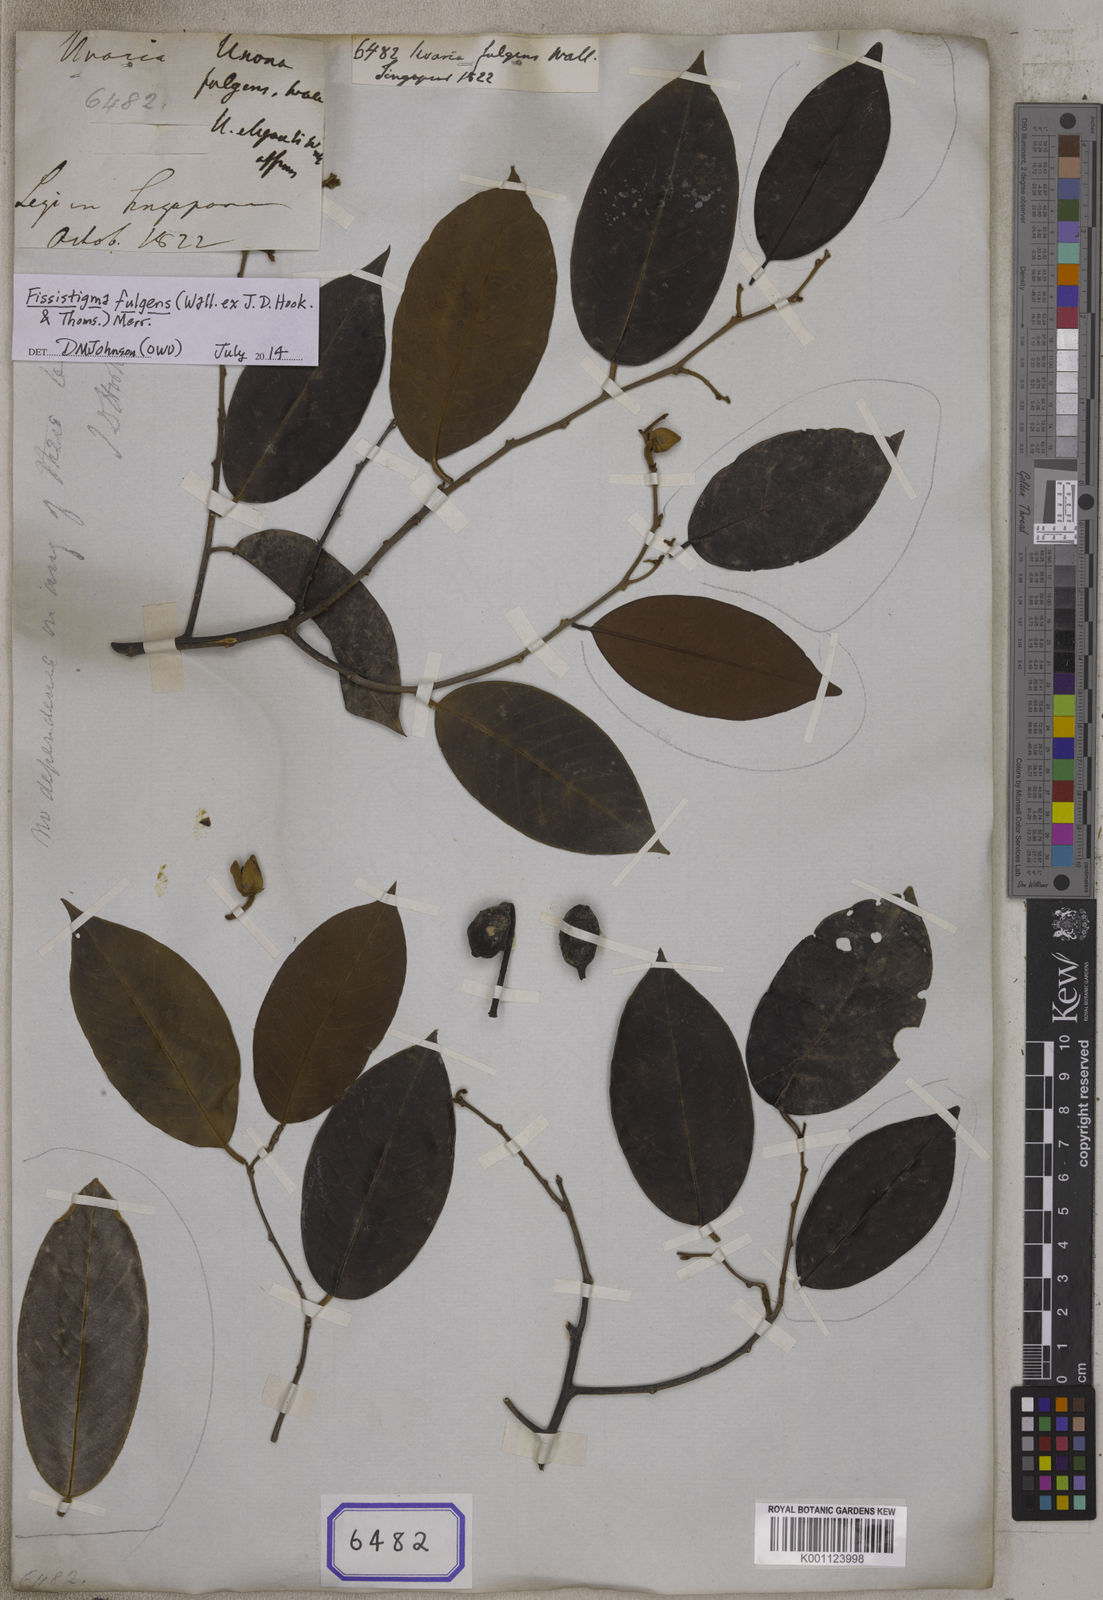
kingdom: Plantae
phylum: Tracheophyta
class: Magnoliopsida
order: Magnoliales
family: Annonaceae
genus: Fissistigma
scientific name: Fissistigma fulgens
